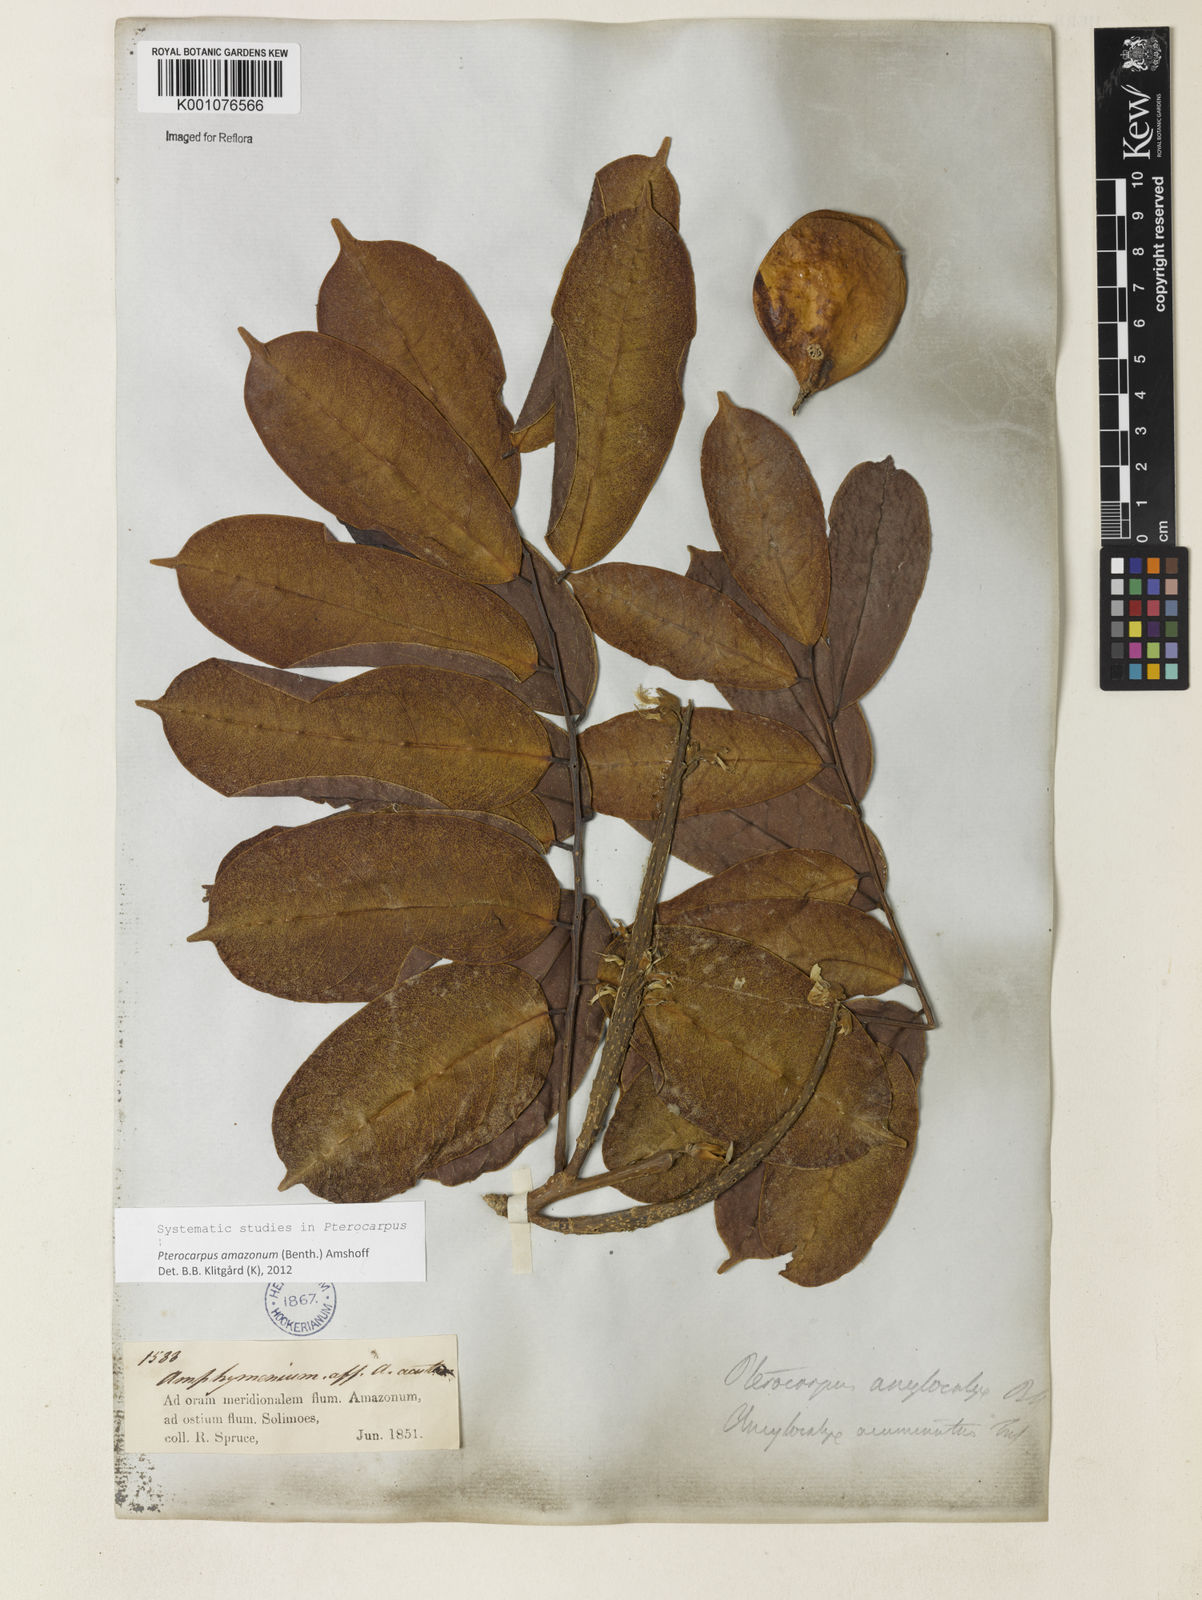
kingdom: Plantae
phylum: Tracheophyta
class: Magnoliopsida
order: Fabales
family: Fabaceae
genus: Pterocarpus
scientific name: Pterocarpus amazonum
